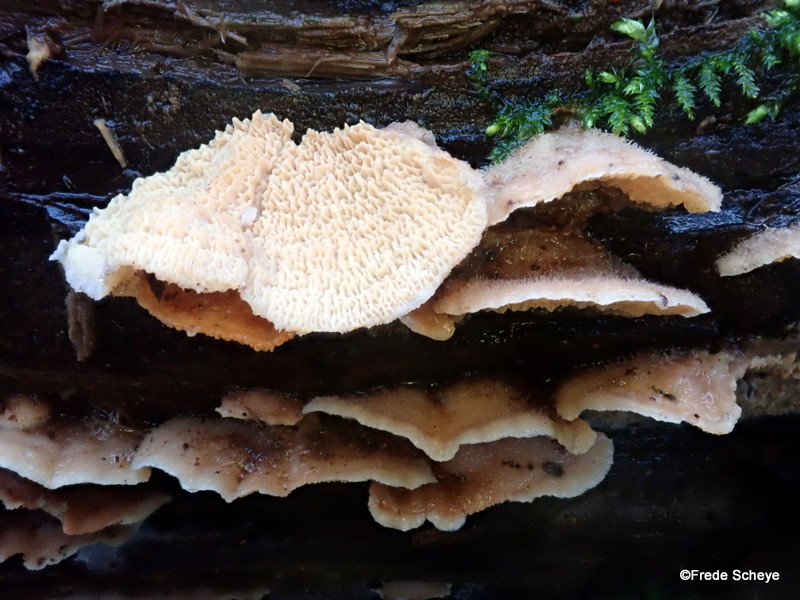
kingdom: Fungi
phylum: Basidiomycota
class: Agaricomycetes
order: Polyporales
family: Meruliaceae
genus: Phlebia
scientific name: Phlebia tremellosa
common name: bævrende åresvamp
